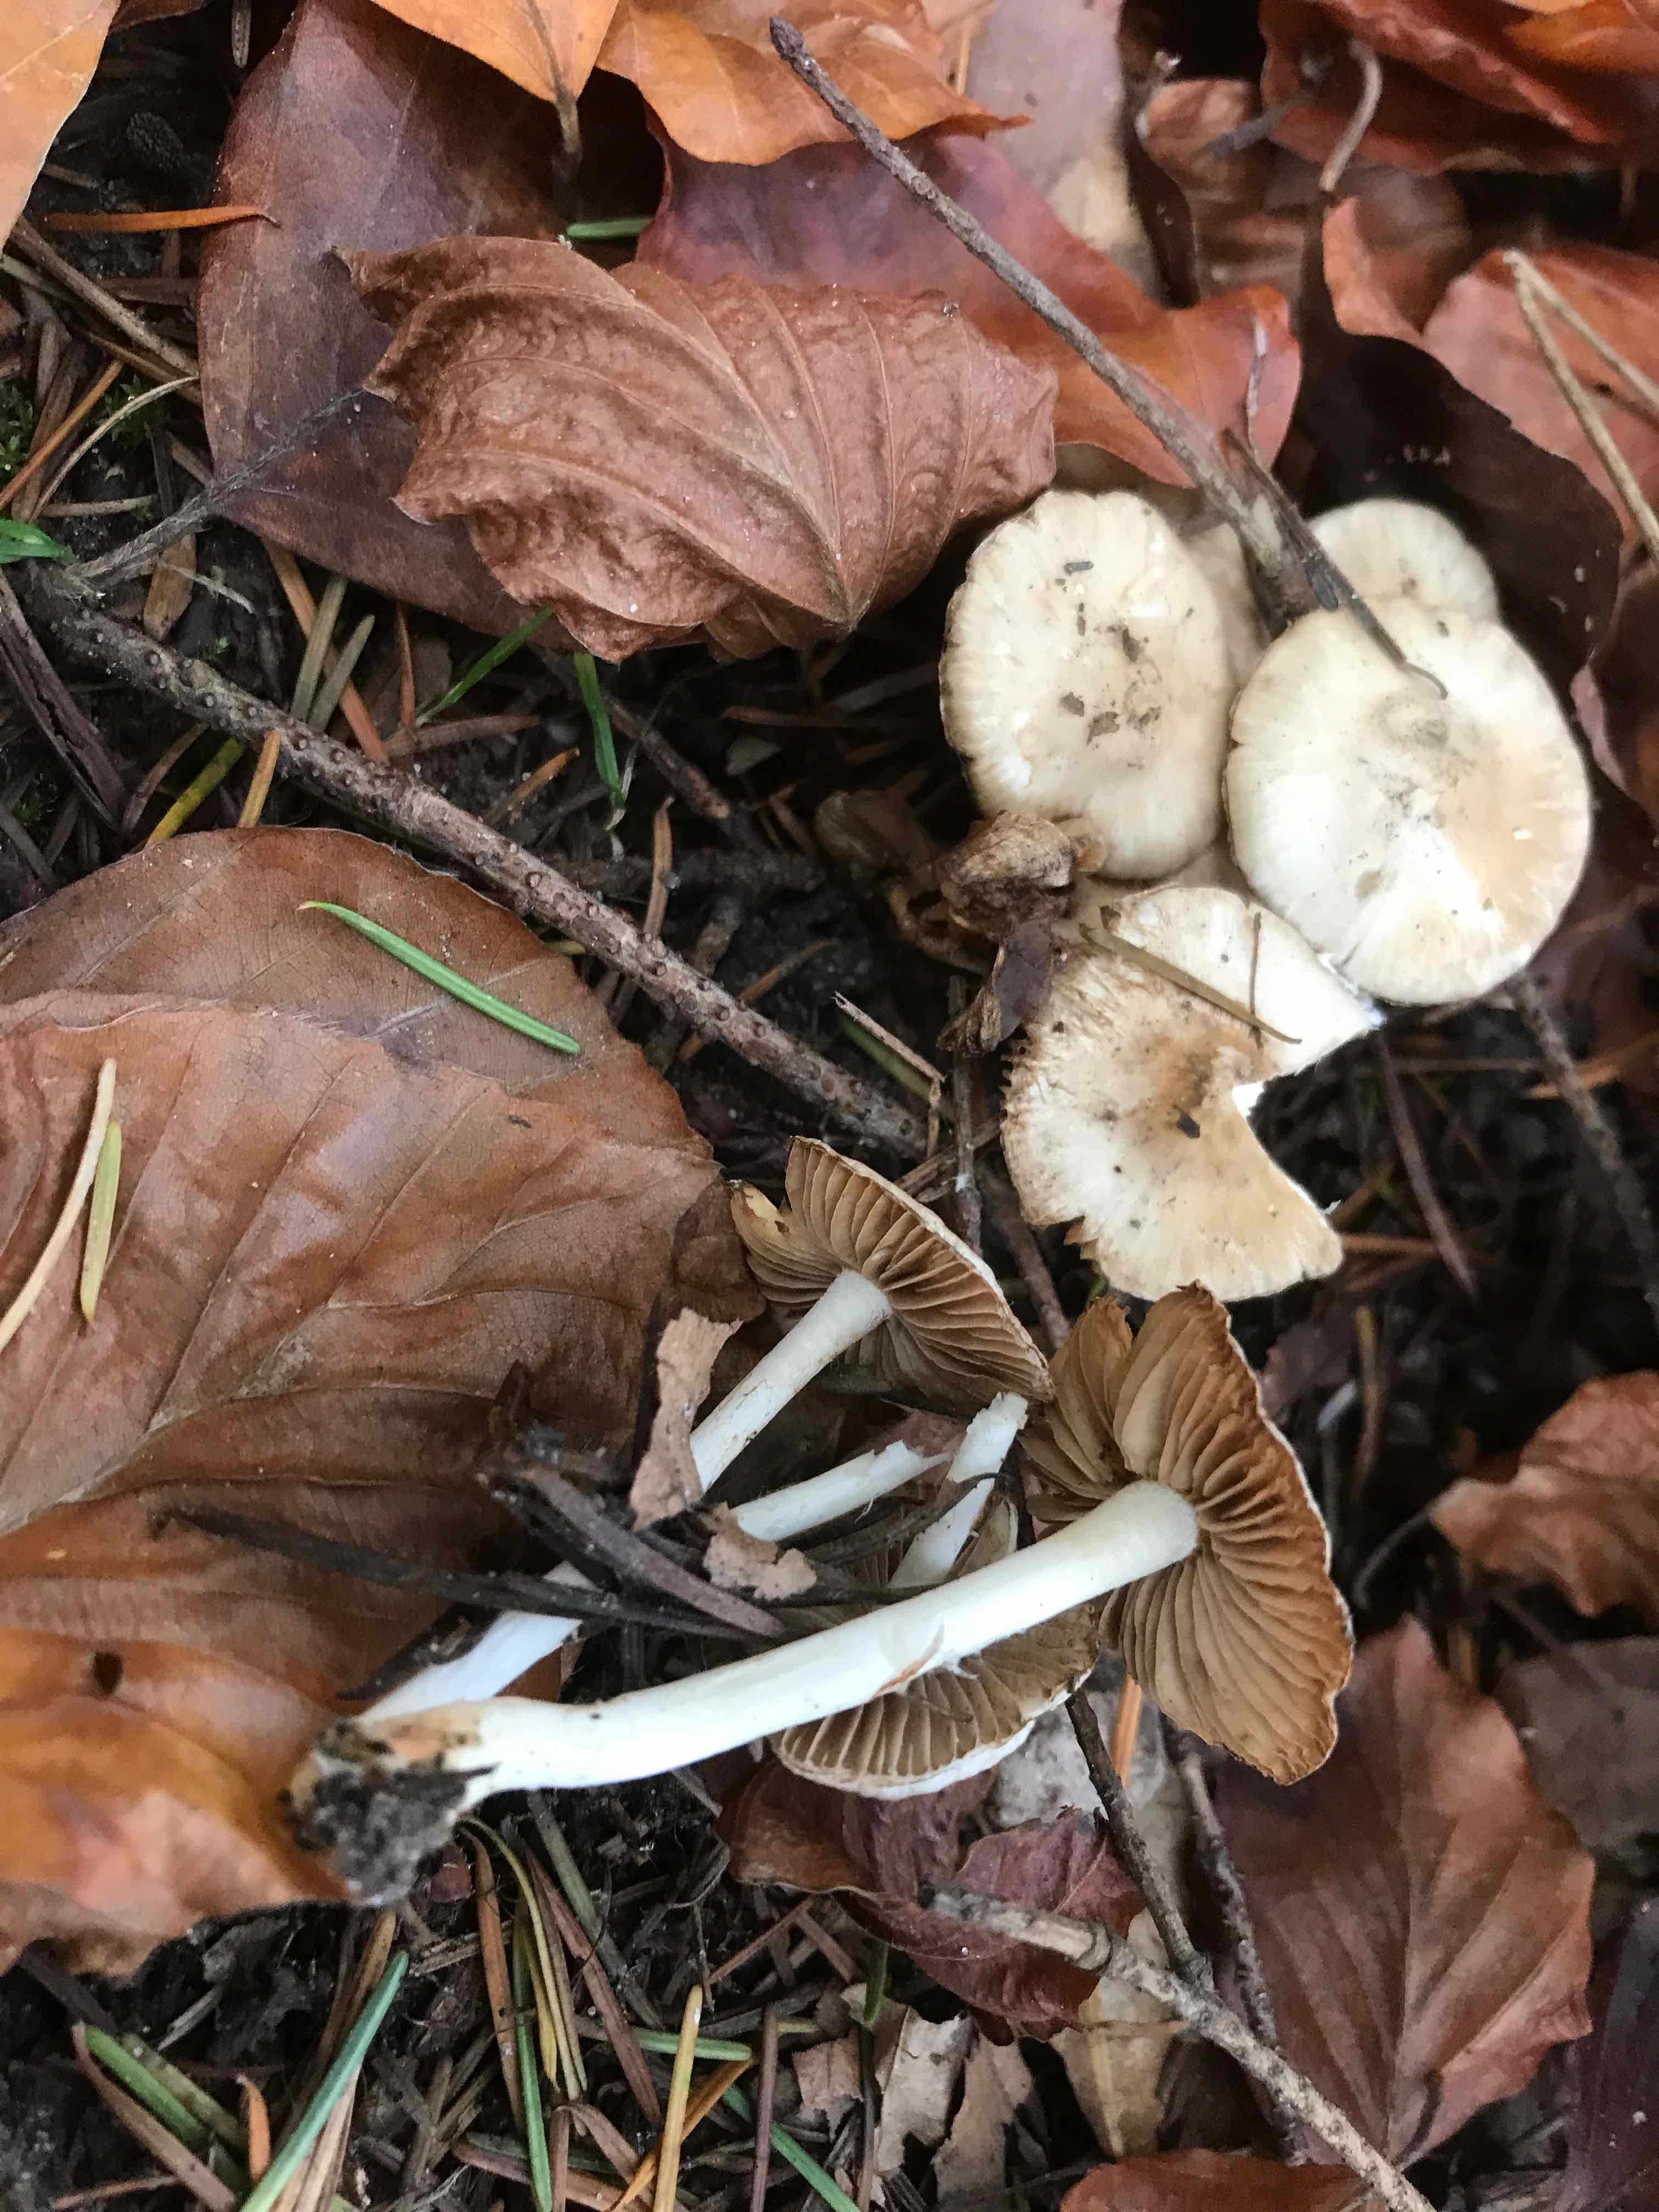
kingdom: Fungi
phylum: Basidiomycota
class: Agaricomycetes
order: Agaricales
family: Inocybaceae
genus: Inocybe
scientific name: Inocybe
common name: almindelig trævlhat
